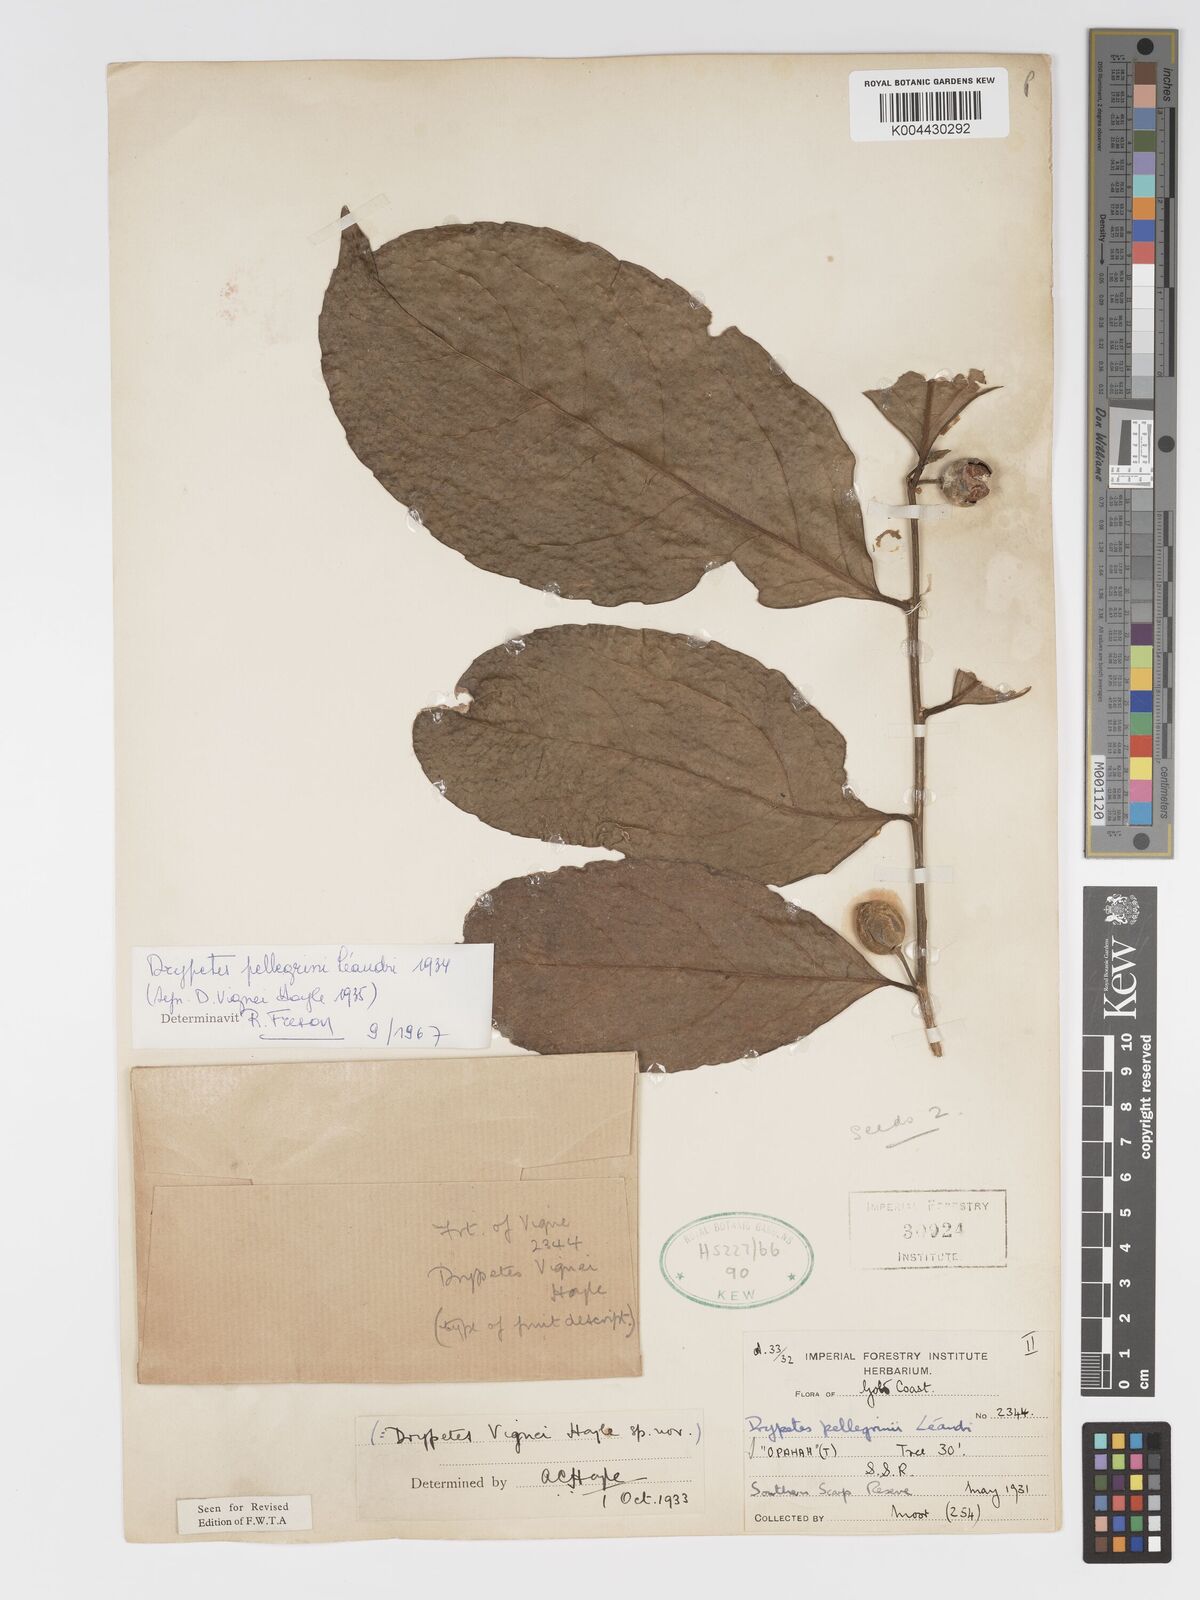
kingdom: Plantae
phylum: Tracheophyta
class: Magnoliopsida
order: Malpighiales
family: Putranjivaceae
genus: Drypetes
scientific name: Drypetes pellegrinii
